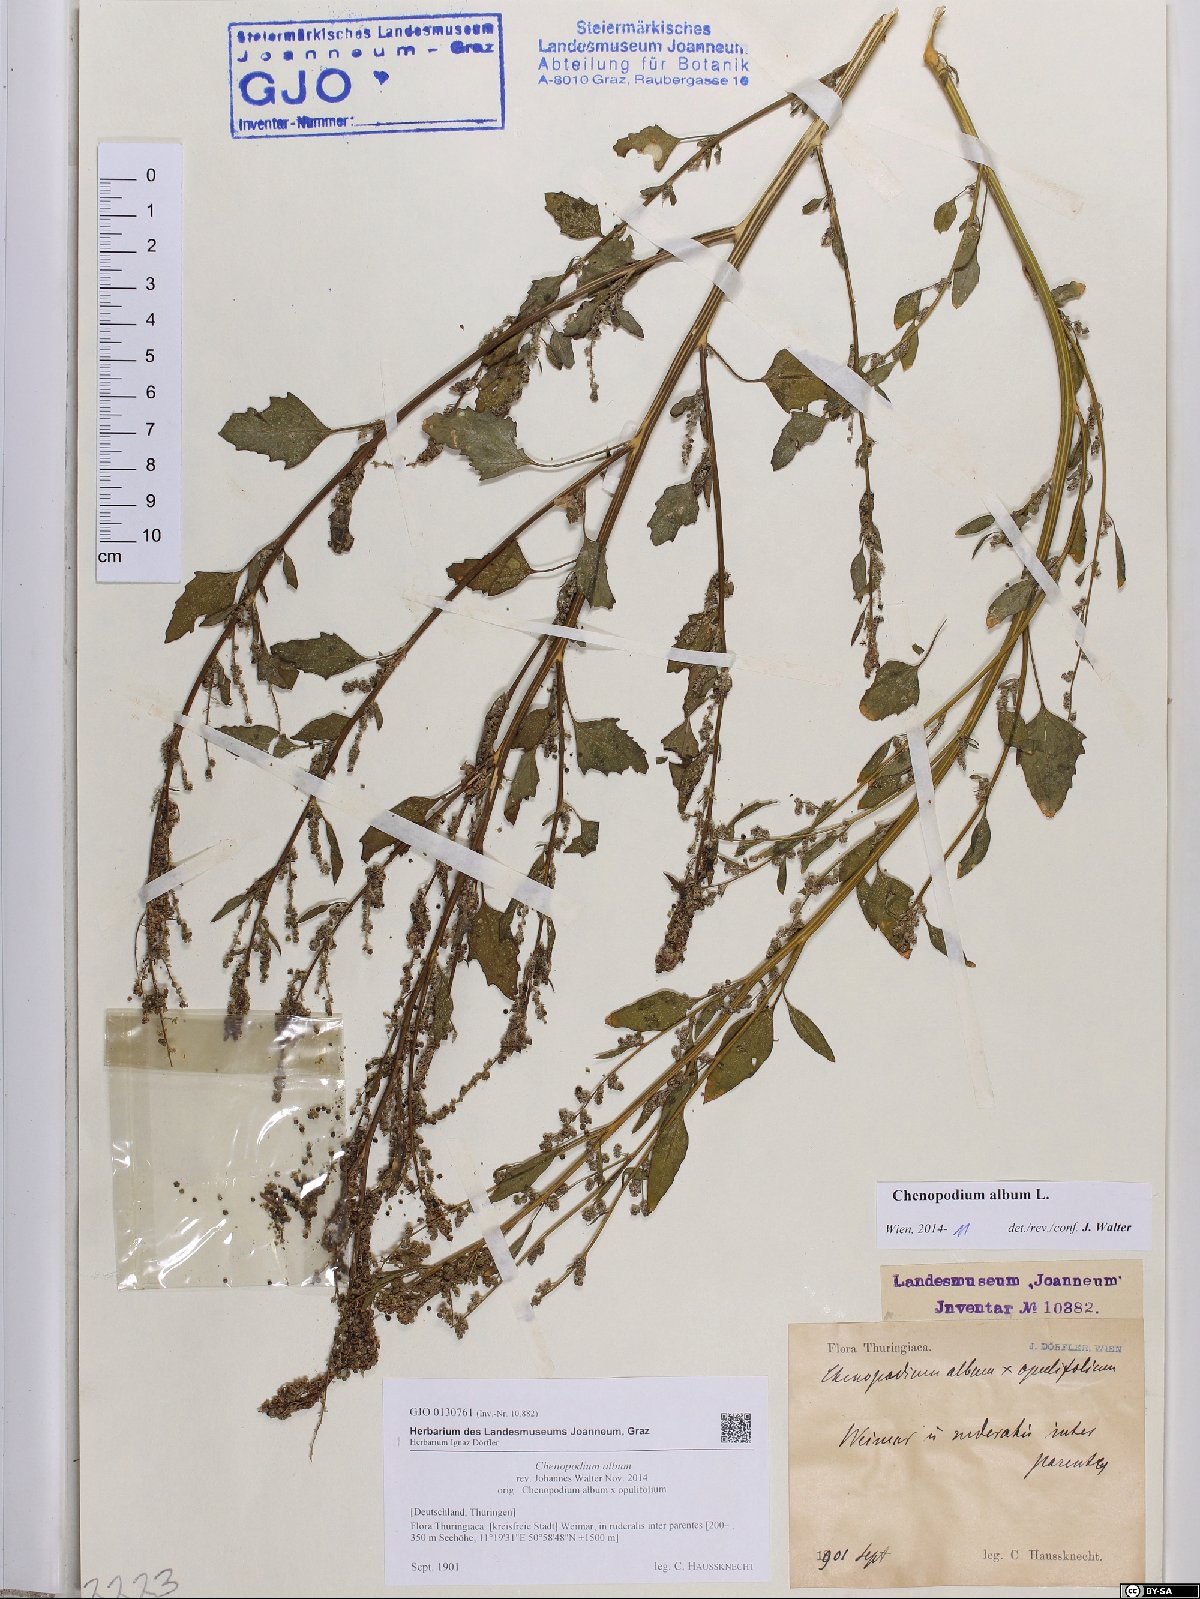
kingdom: Plantae
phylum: Tracheophyta
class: Magnoliopsida
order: Caryophyllales
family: Amaranthaceae
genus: Chenopodium
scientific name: Chenopodium album
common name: Fat-hen
